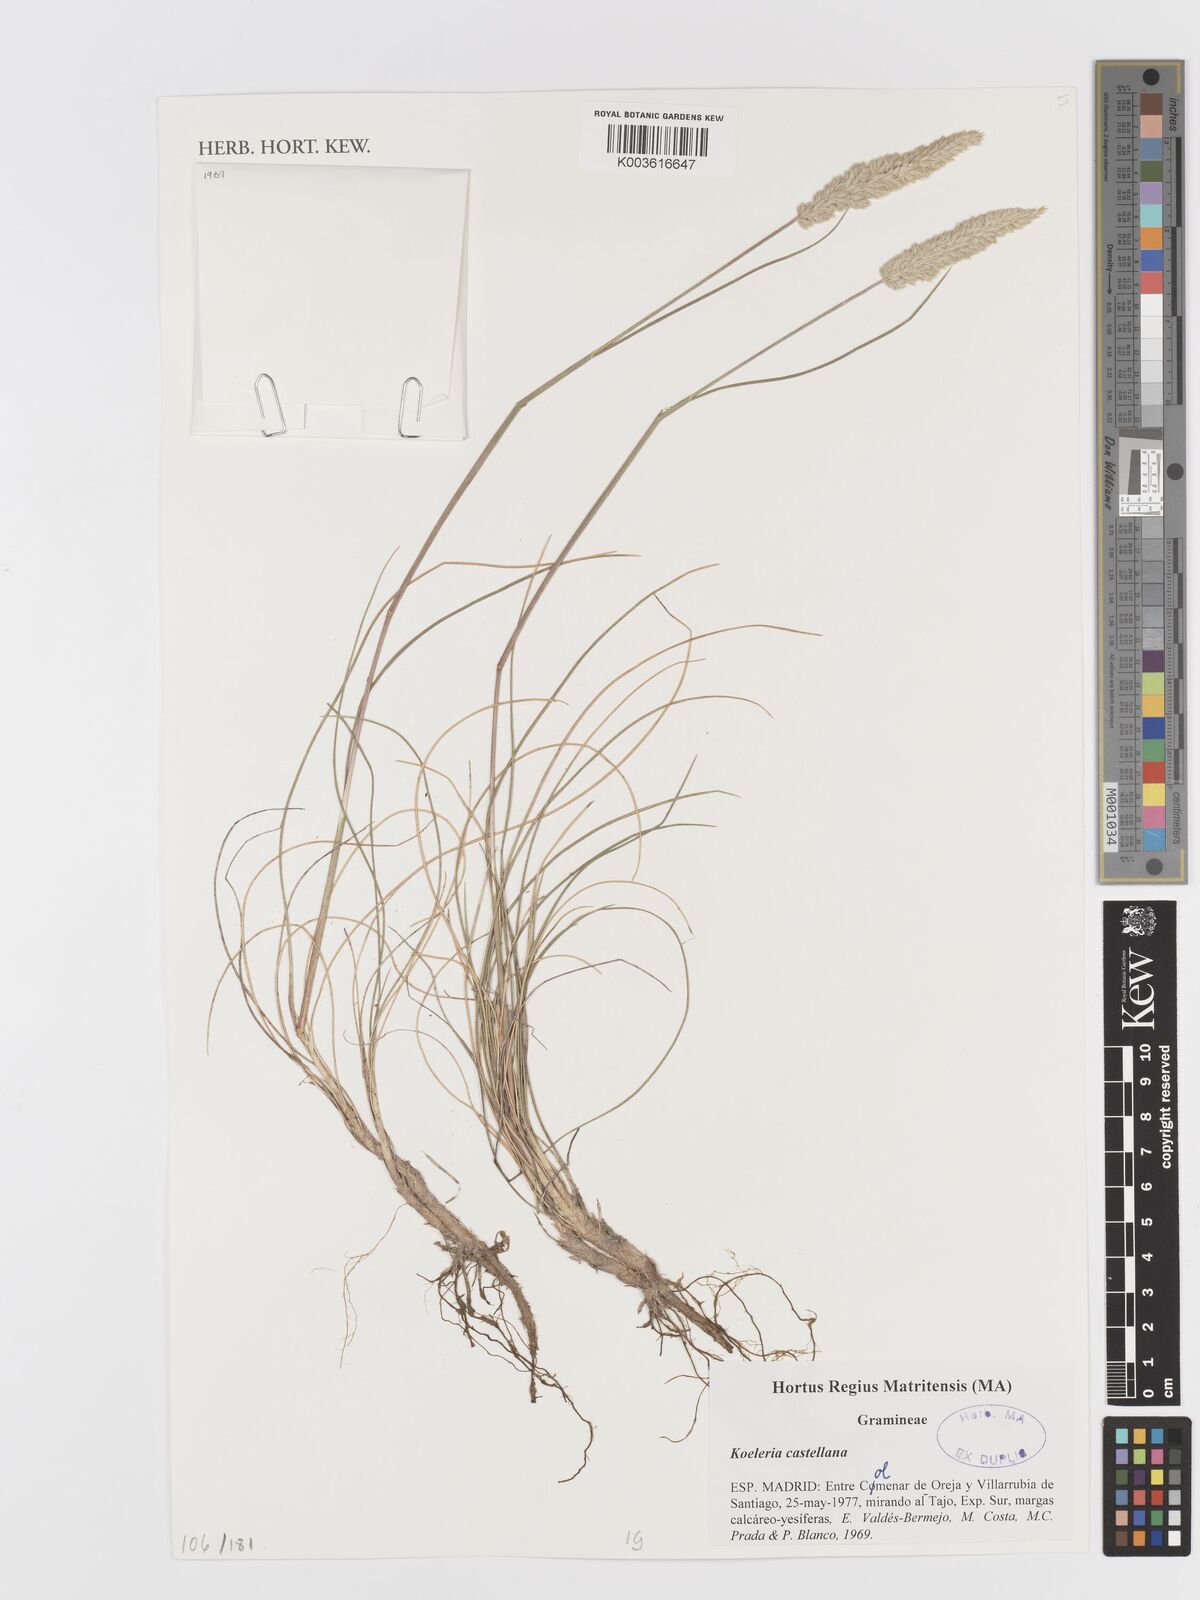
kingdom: Plantae
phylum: Tracheophyta
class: Liliopsida
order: Poales
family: Poaceae
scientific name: Poaceae
